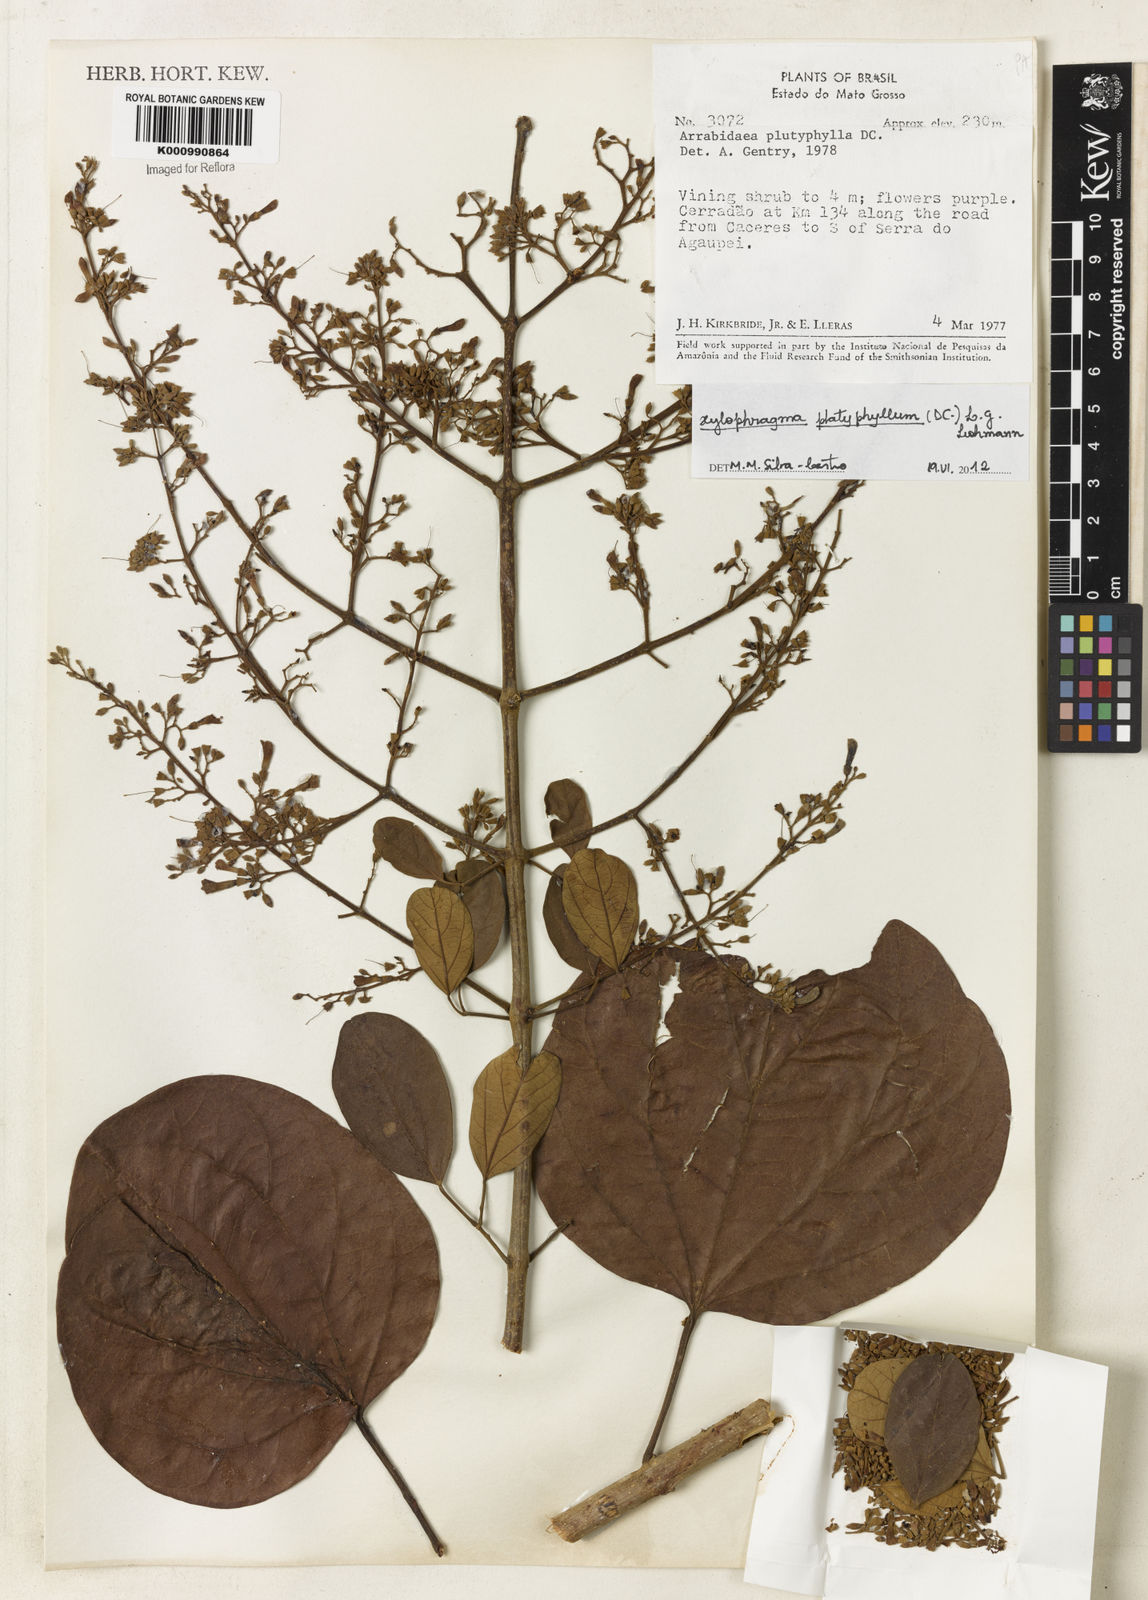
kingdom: Plantae
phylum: Tracheophyta
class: Magnoliopsida
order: Lamiales
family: Bignoniaceae
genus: Xylophragma
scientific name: Xylophragma platyphyllum
